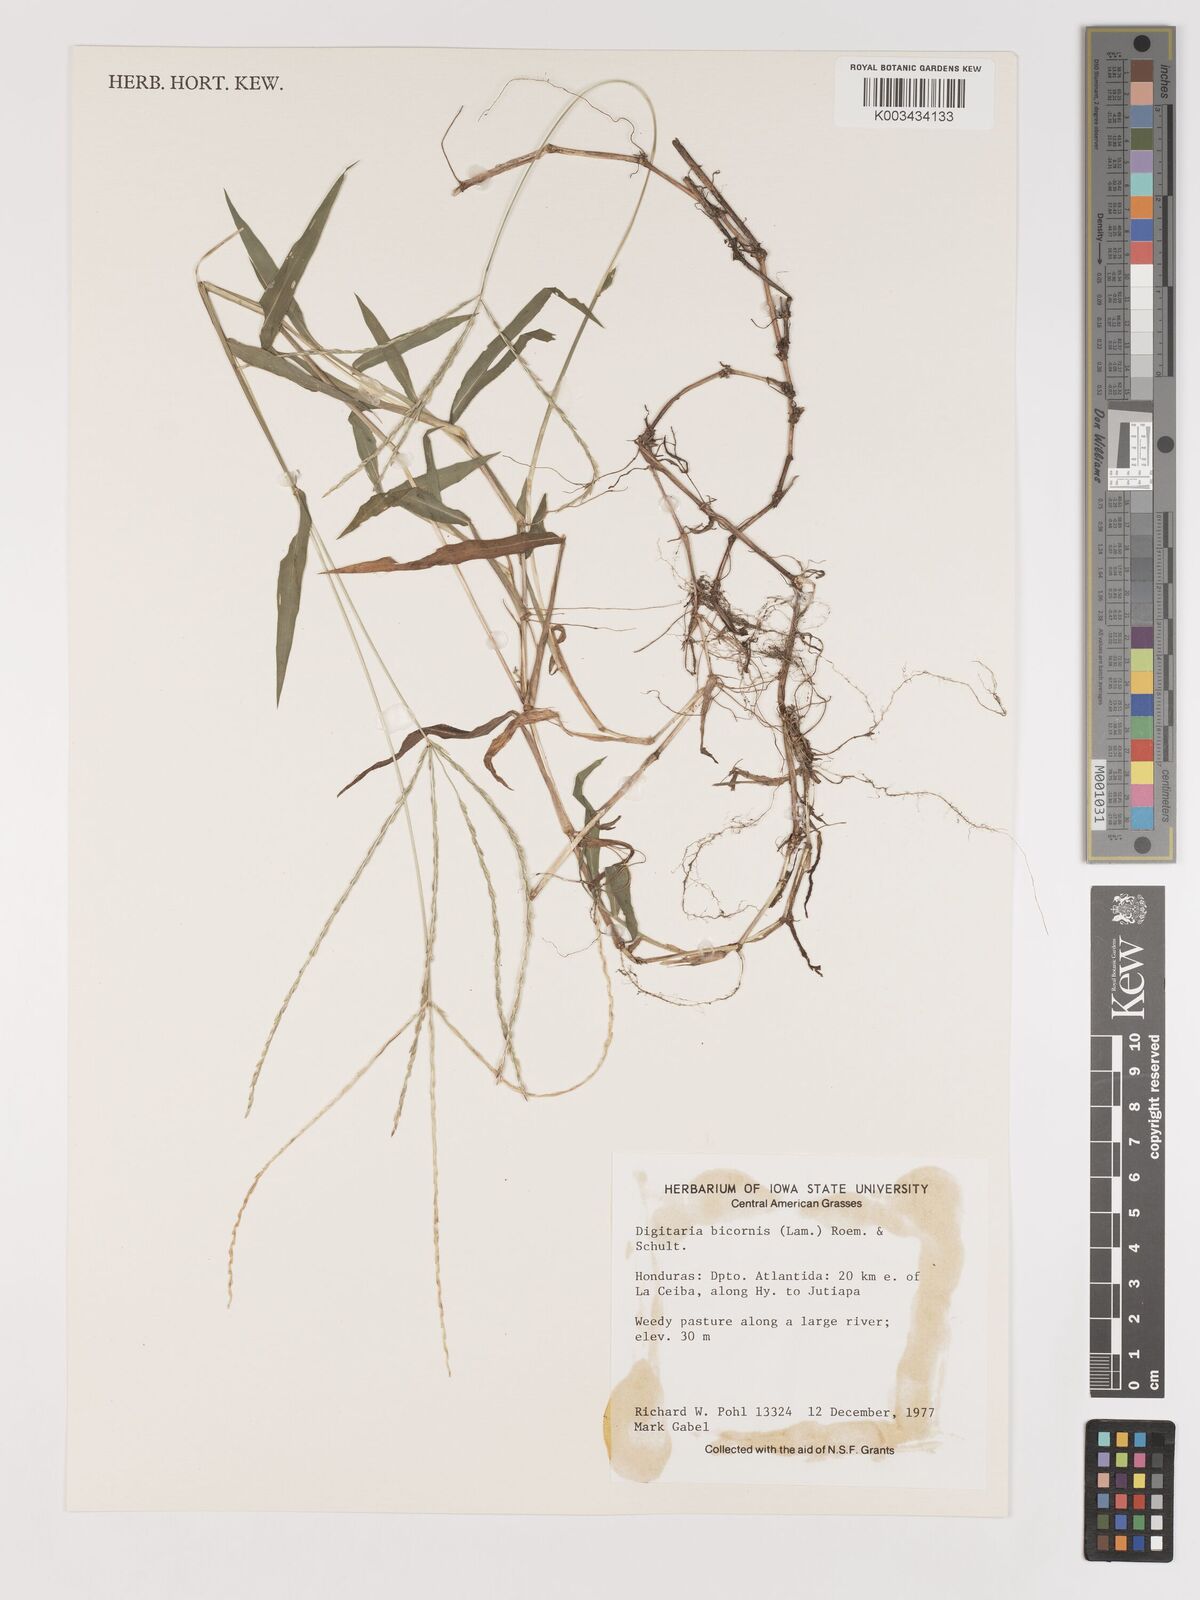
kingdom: Plantae
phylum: Tracheophyta
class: Liliopsida
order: Poales
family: Poaceae
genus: Digitaria
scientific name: Digitaria ciliaris
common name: Tropical finger-grass
